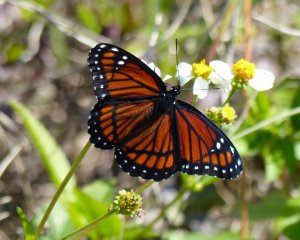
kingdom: Animalia
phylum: Arthropoda
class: Insecta
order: Lepidoptera
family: Nymphalidae
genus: Limenitis
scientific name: Limenitis archippus
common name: Viceroy
